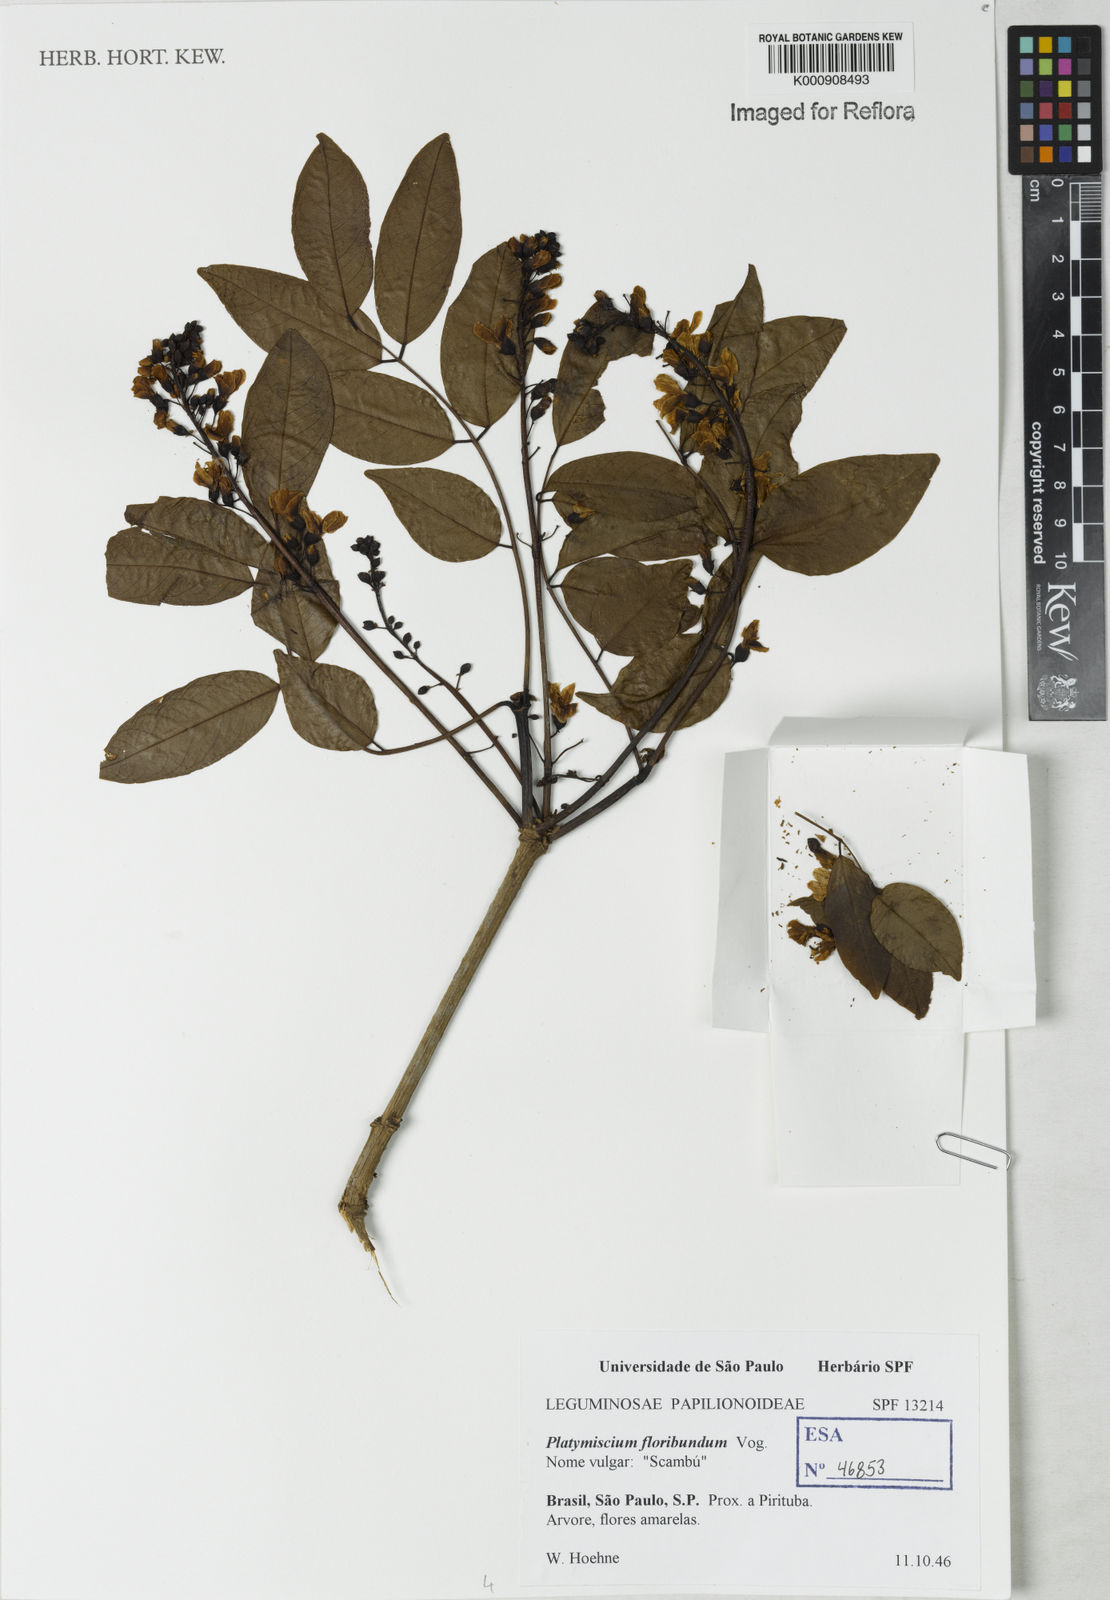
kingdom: Plantae
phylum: Tracheophyta
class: Magnoliopsida
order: Fabales
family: Fabaceae
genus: Platymiscium
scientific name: Platymiscium
